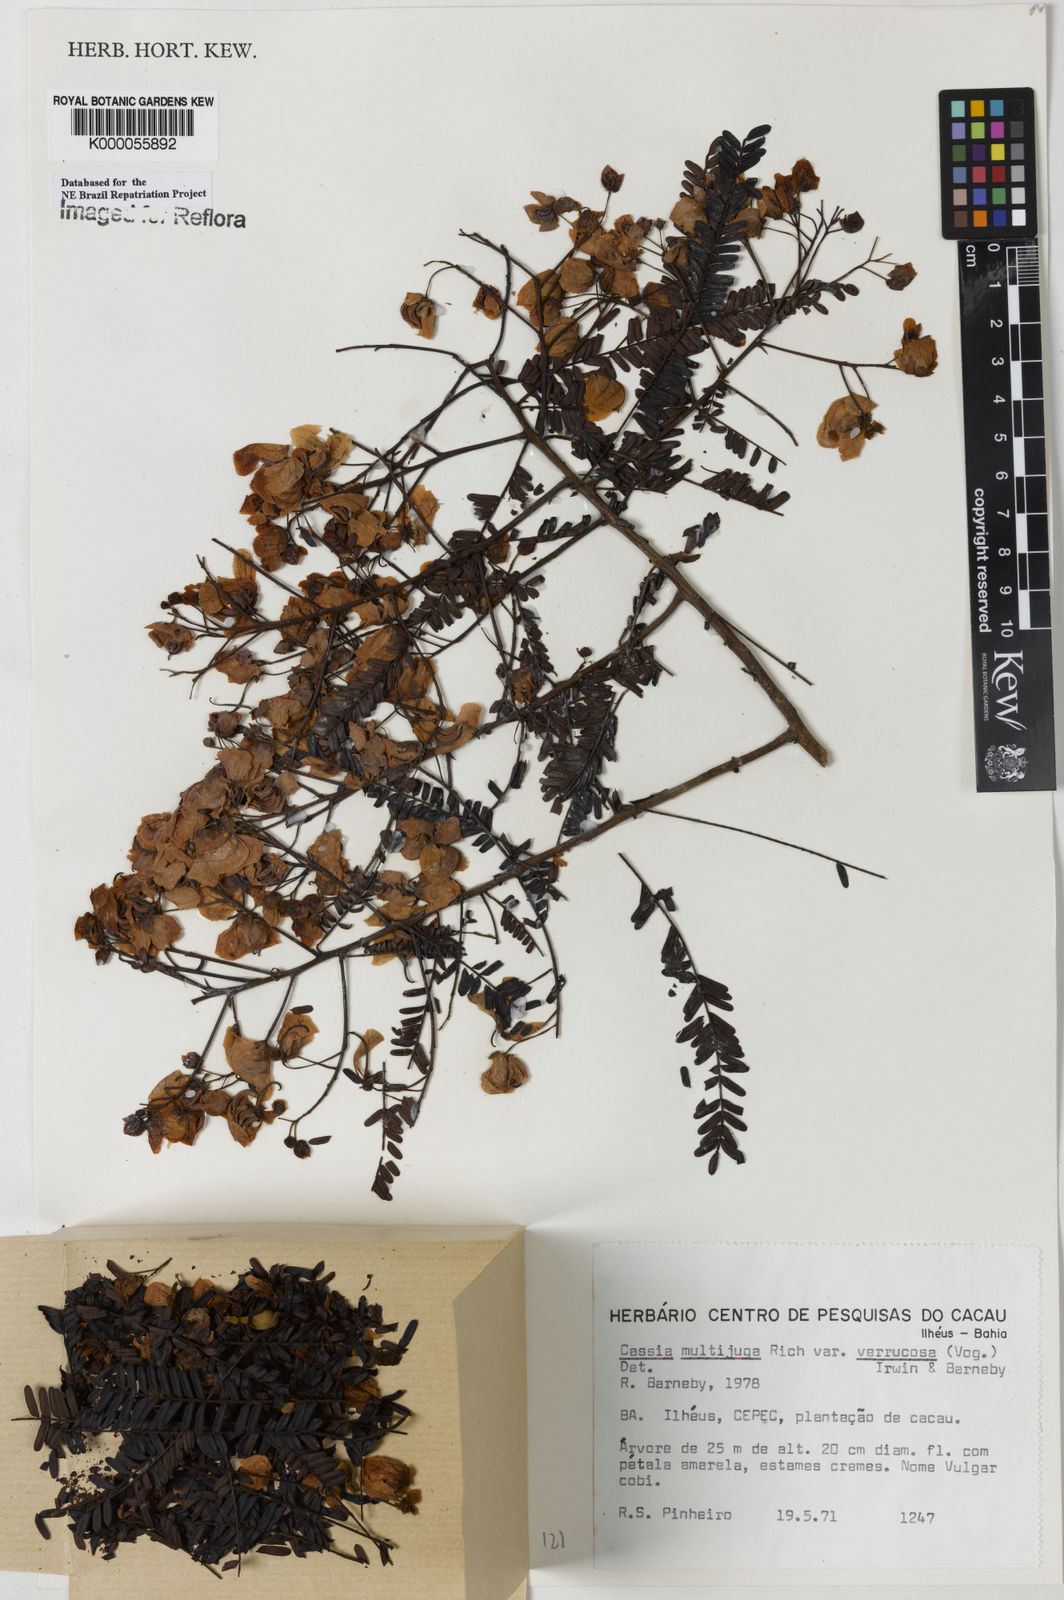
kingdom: Plantae
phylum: Tracheophyta
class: Magnoliopsida
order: Fabales
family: Fabaceae
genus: Senna
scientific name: Senna multijuga
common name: False sicklepod
